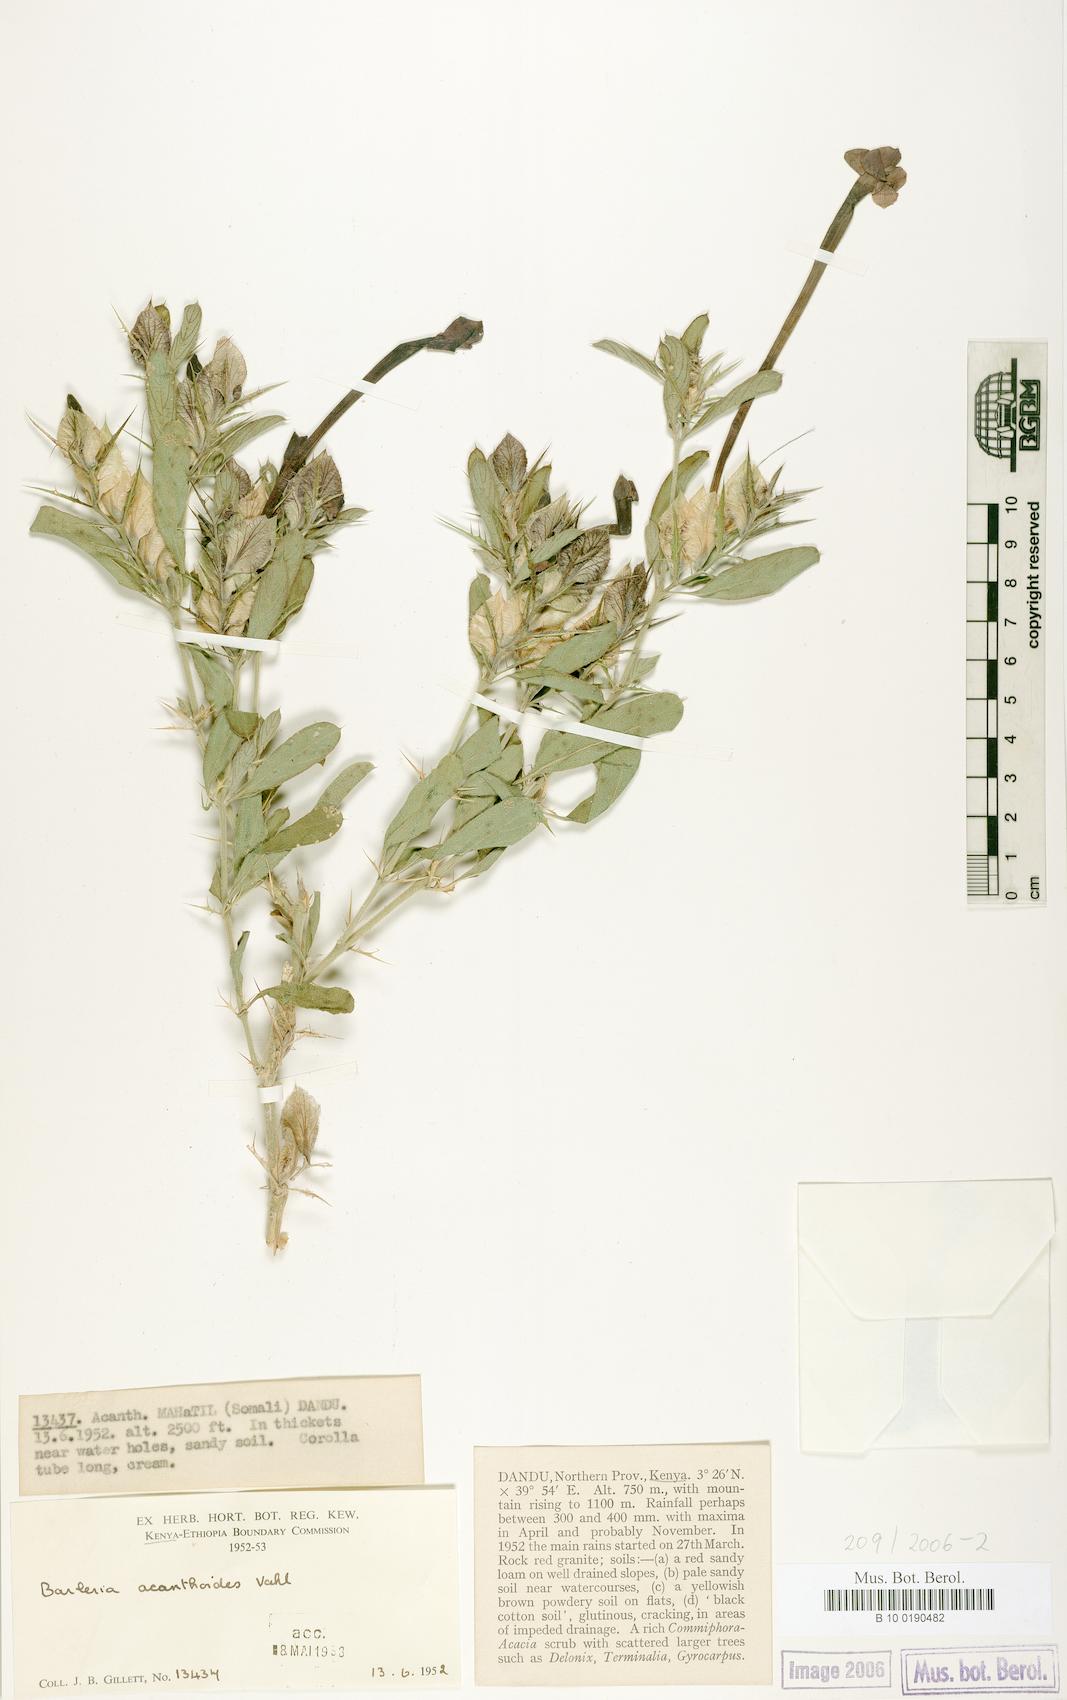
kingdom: Plantae
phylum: Tracheophyta
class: Magnoliopsida
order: Lamiales
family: Acanthaceae
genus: Barleria
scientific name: Barleria acanthoides
